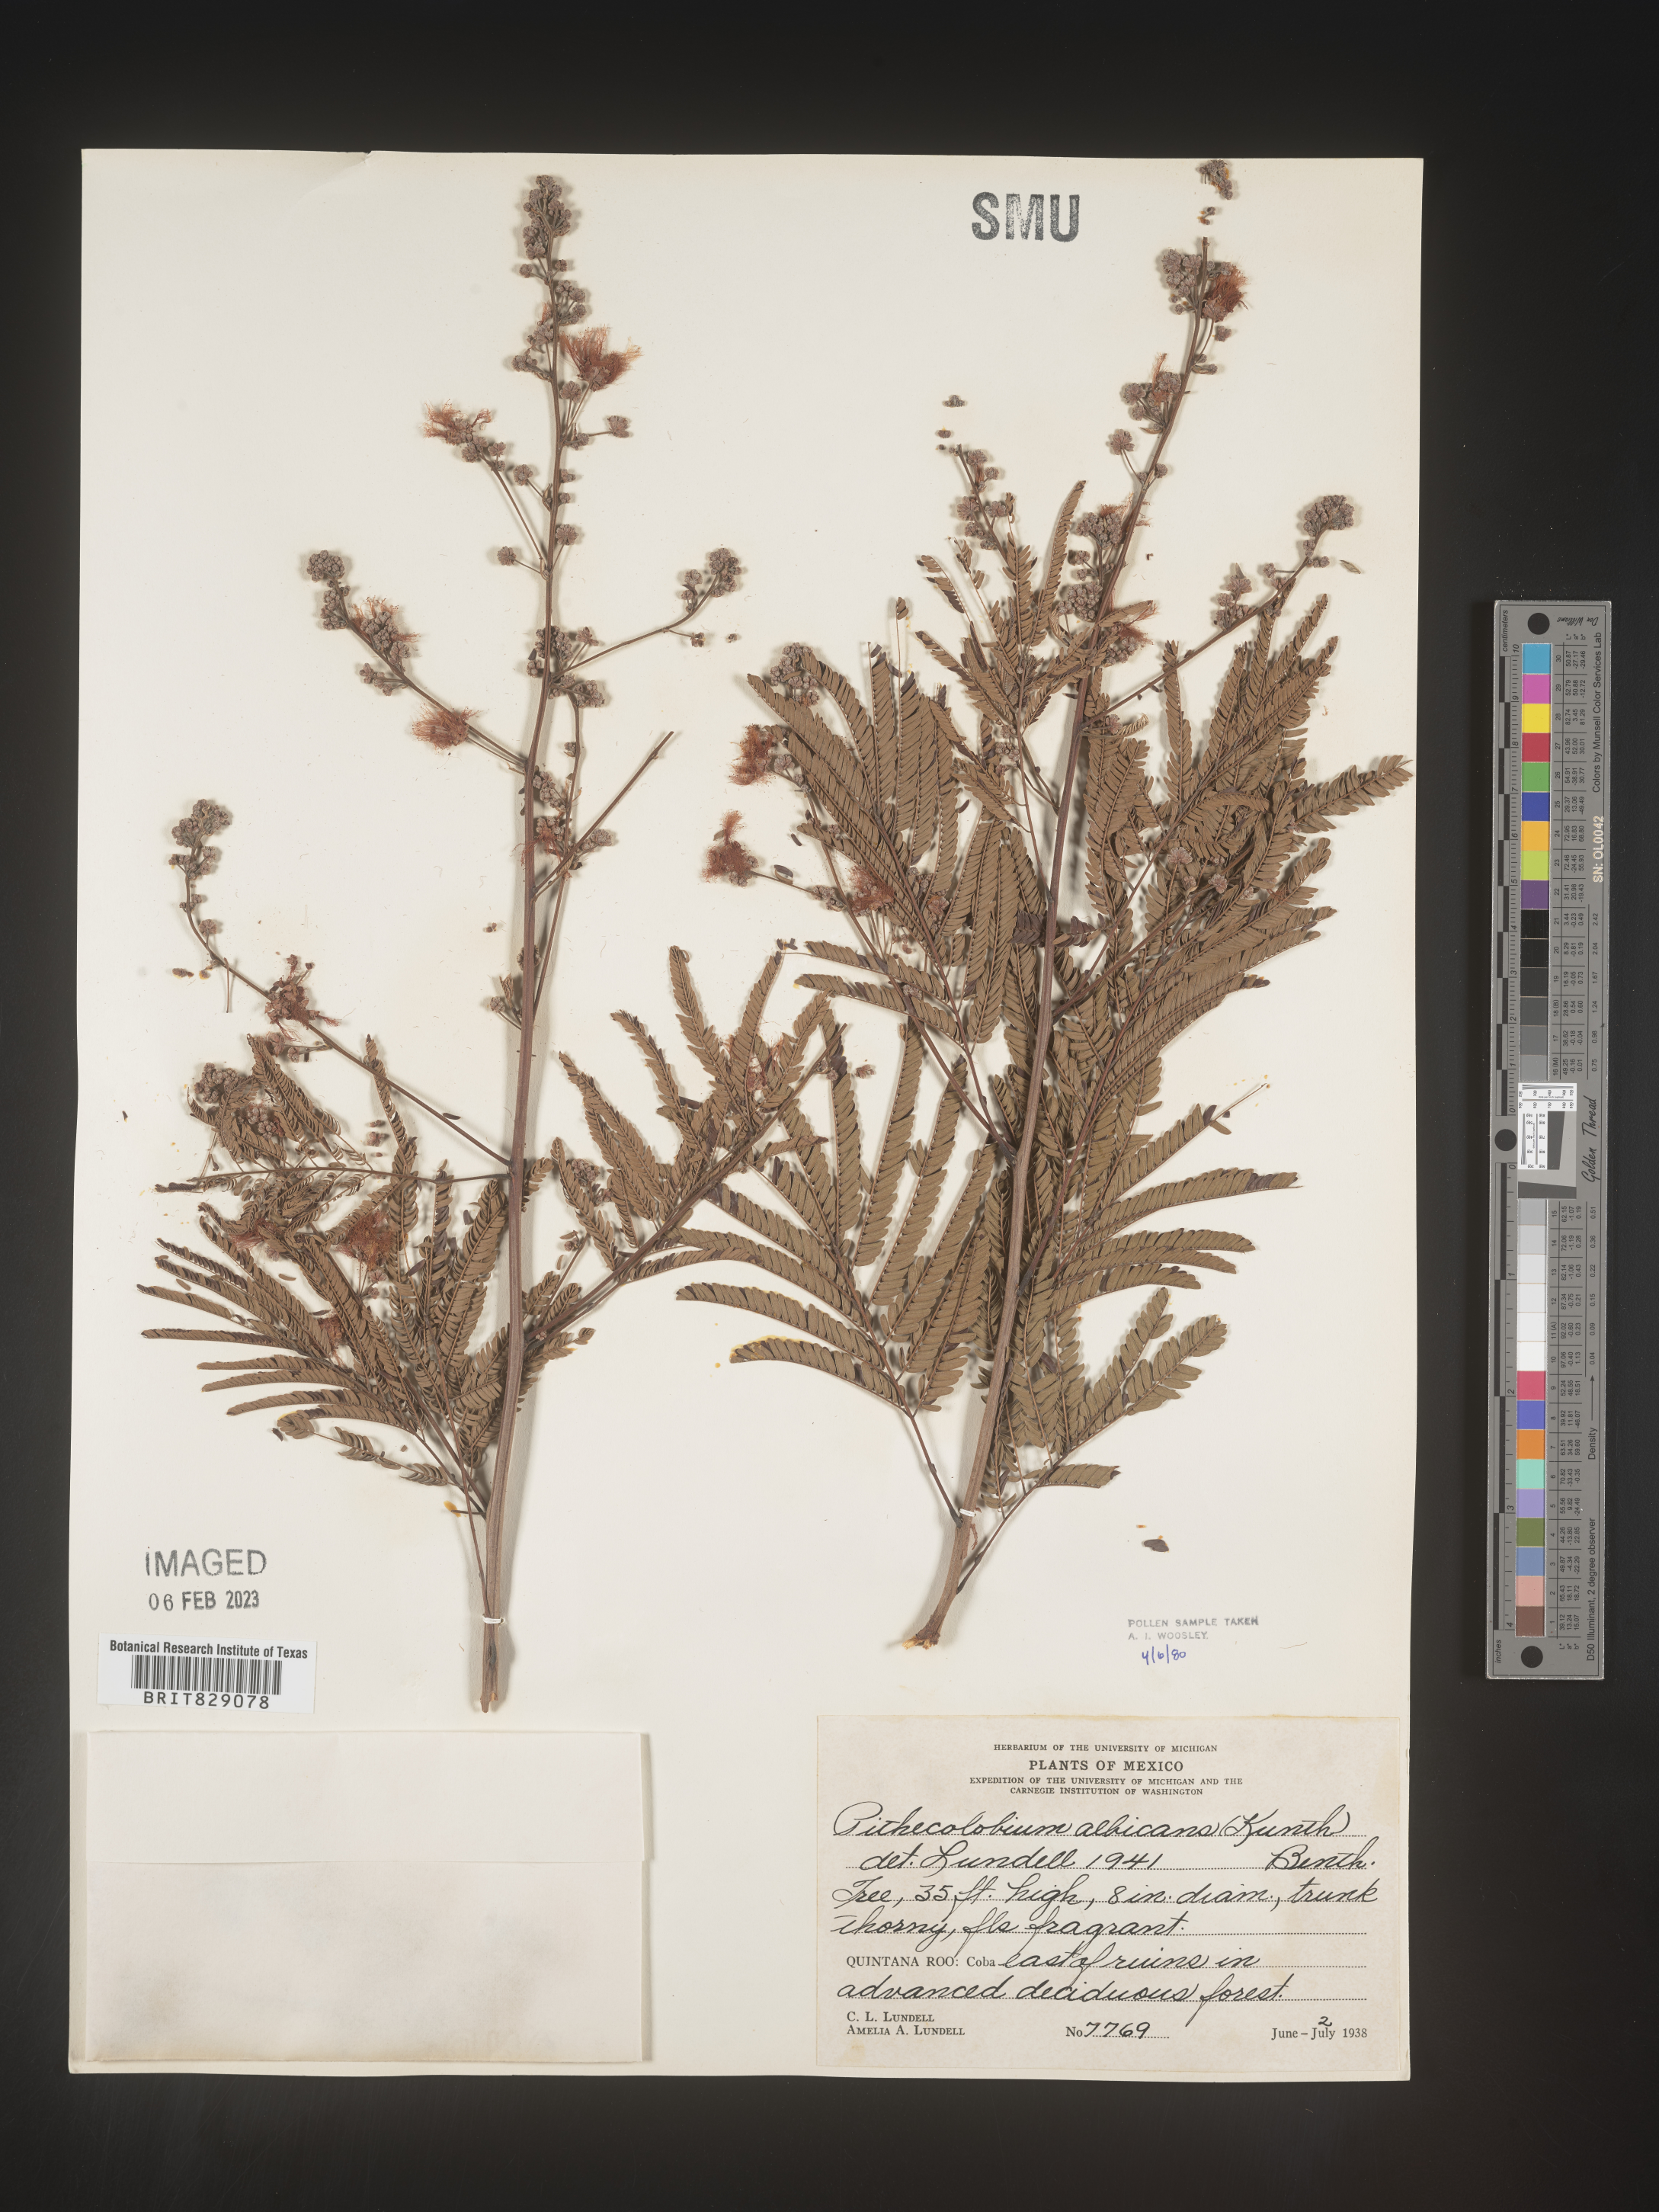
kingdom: Plantae
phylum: Tracheophyta
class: Magnoliopsida
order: Fabales
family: Fabaceae
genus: Pithecellobium
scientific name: Pithecellobium
